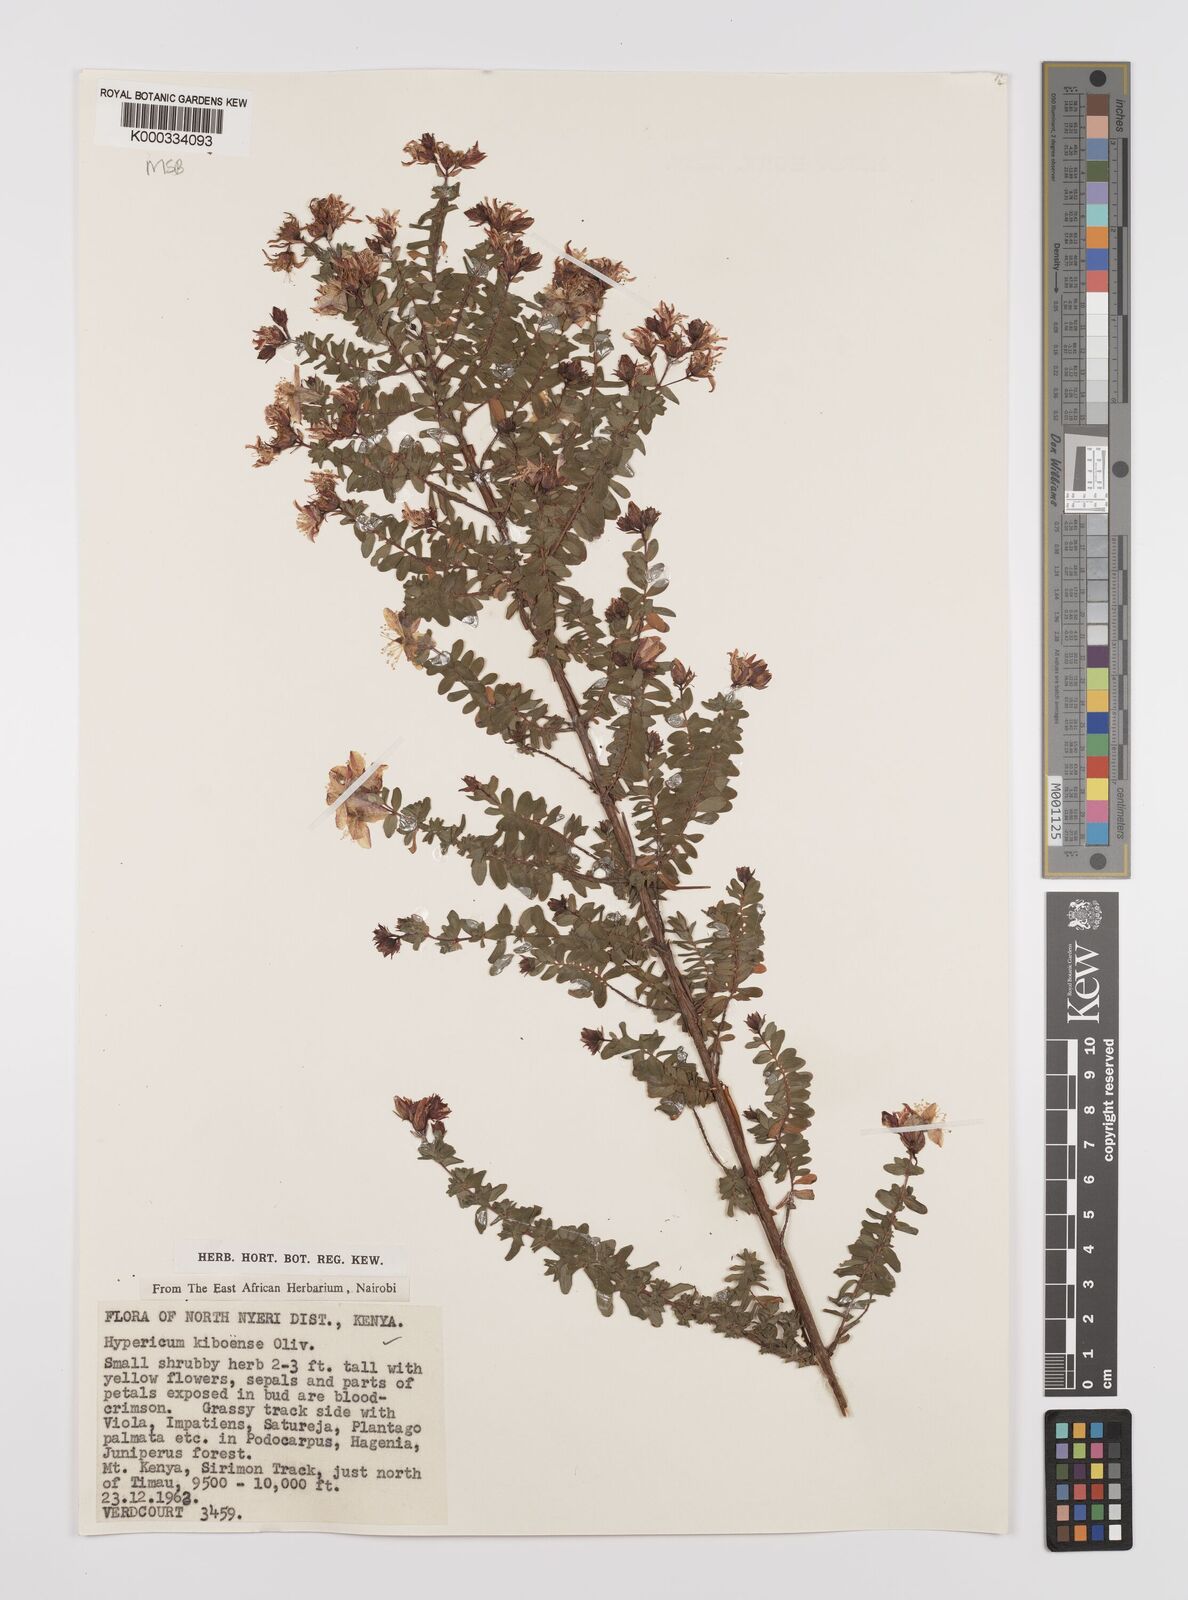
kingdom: Plantae
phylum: Tracheophyta
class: Magnoliopsida
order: Malpighiales
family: Hypericaceae
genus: Hypericum
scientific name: Hypericum kiboense
